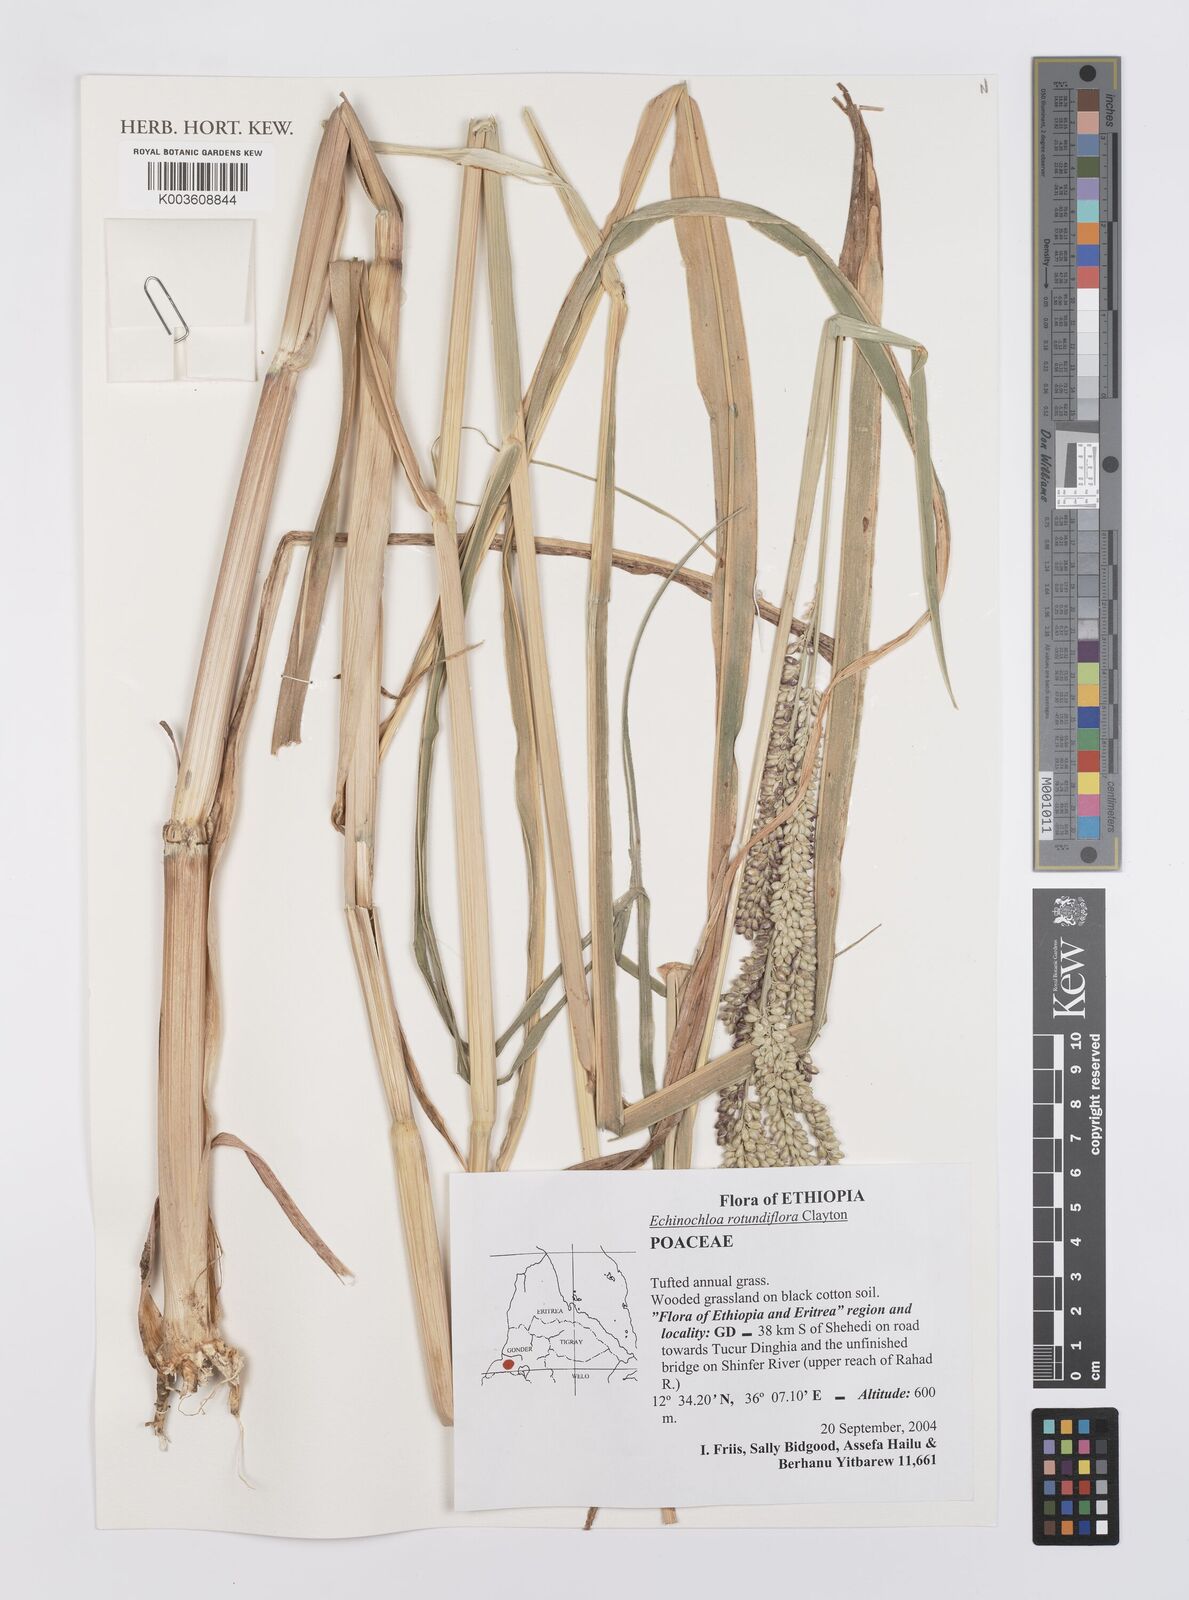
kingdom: Plantae
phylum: Tracheophyta
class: Liliopsida
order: Poales
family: Poaceae
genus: Echinochloa
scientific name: Echinochloa rotundiflora
